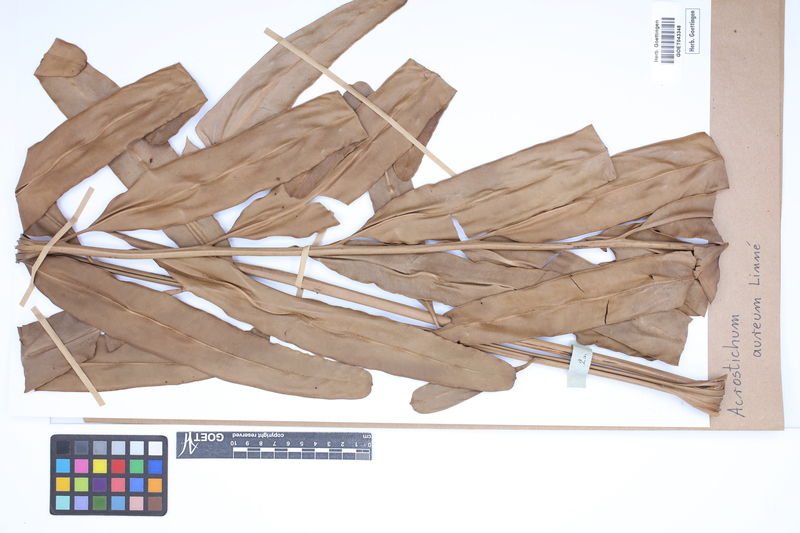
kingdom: Plantae
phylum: Tracheophyta
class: Polypodiopsida
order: Polypodiales
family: Pteridaceae
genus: Acrostichum
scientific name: Acrostichum aureum
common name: Leather fern
